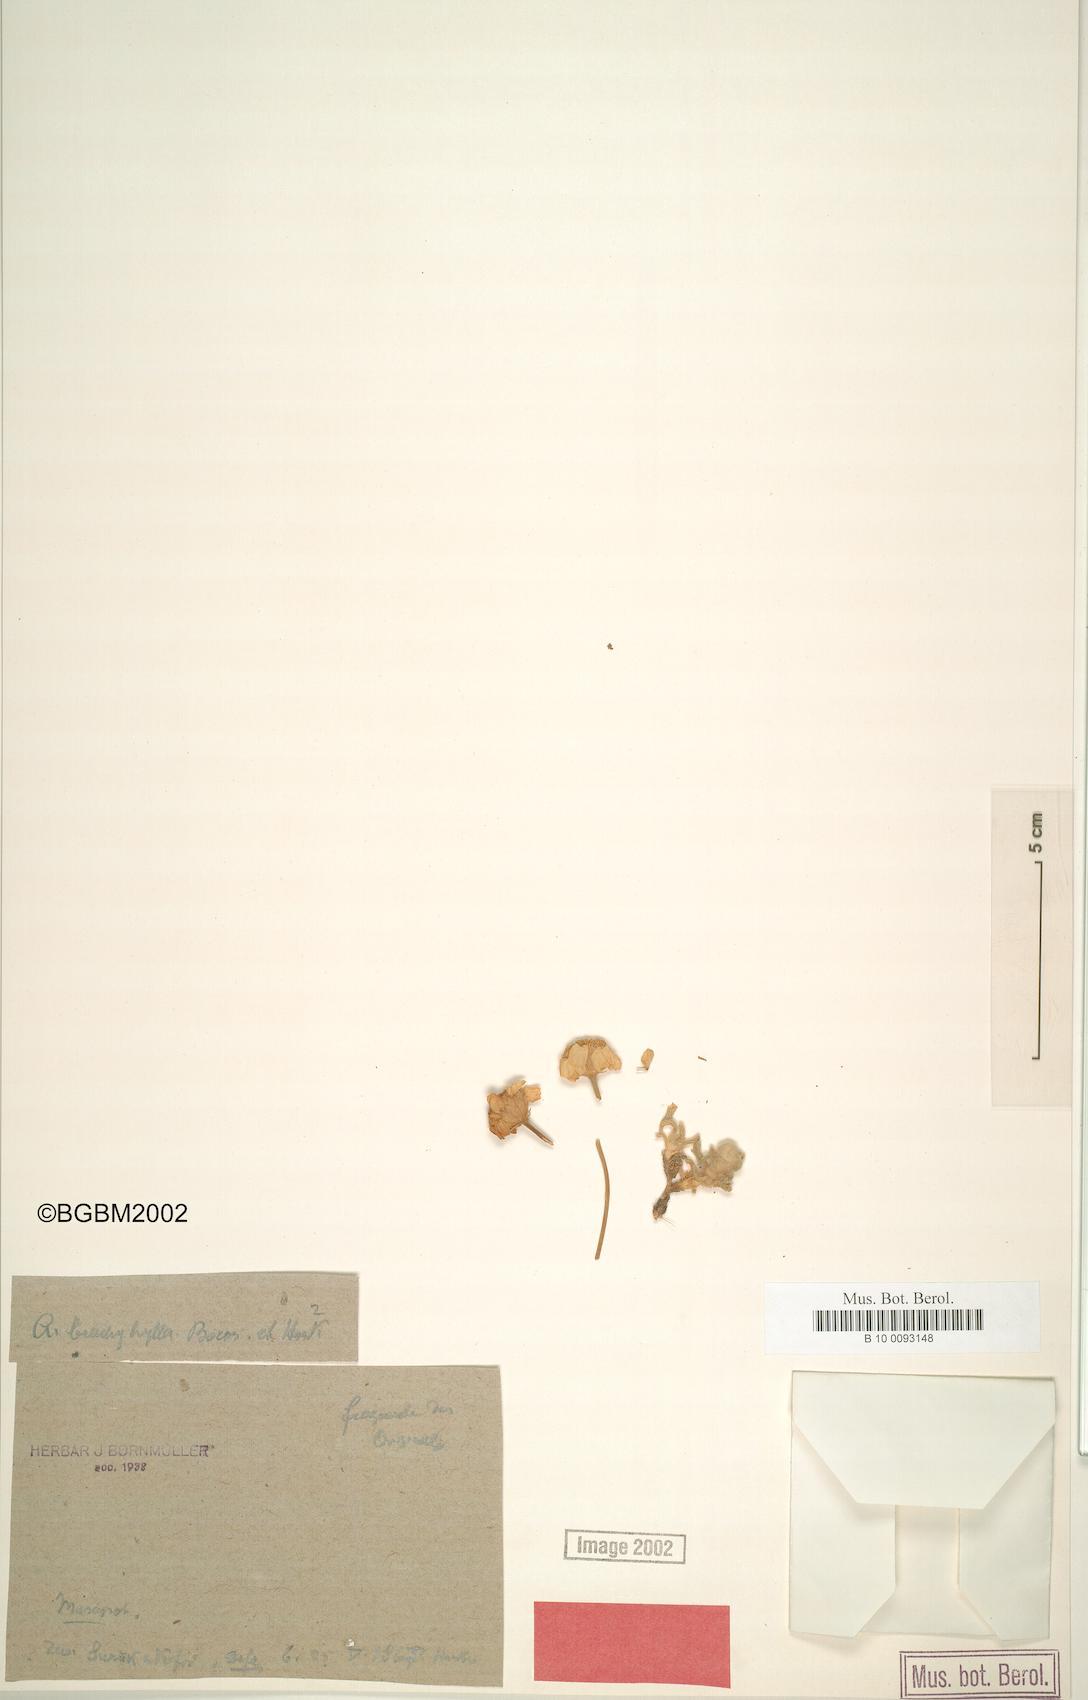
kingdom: Plantae
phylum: Tracheophyta
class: Magnoliopsida
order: Asterales
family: Asteraceae
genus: Achillea
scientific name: Achillea brachyphylla
